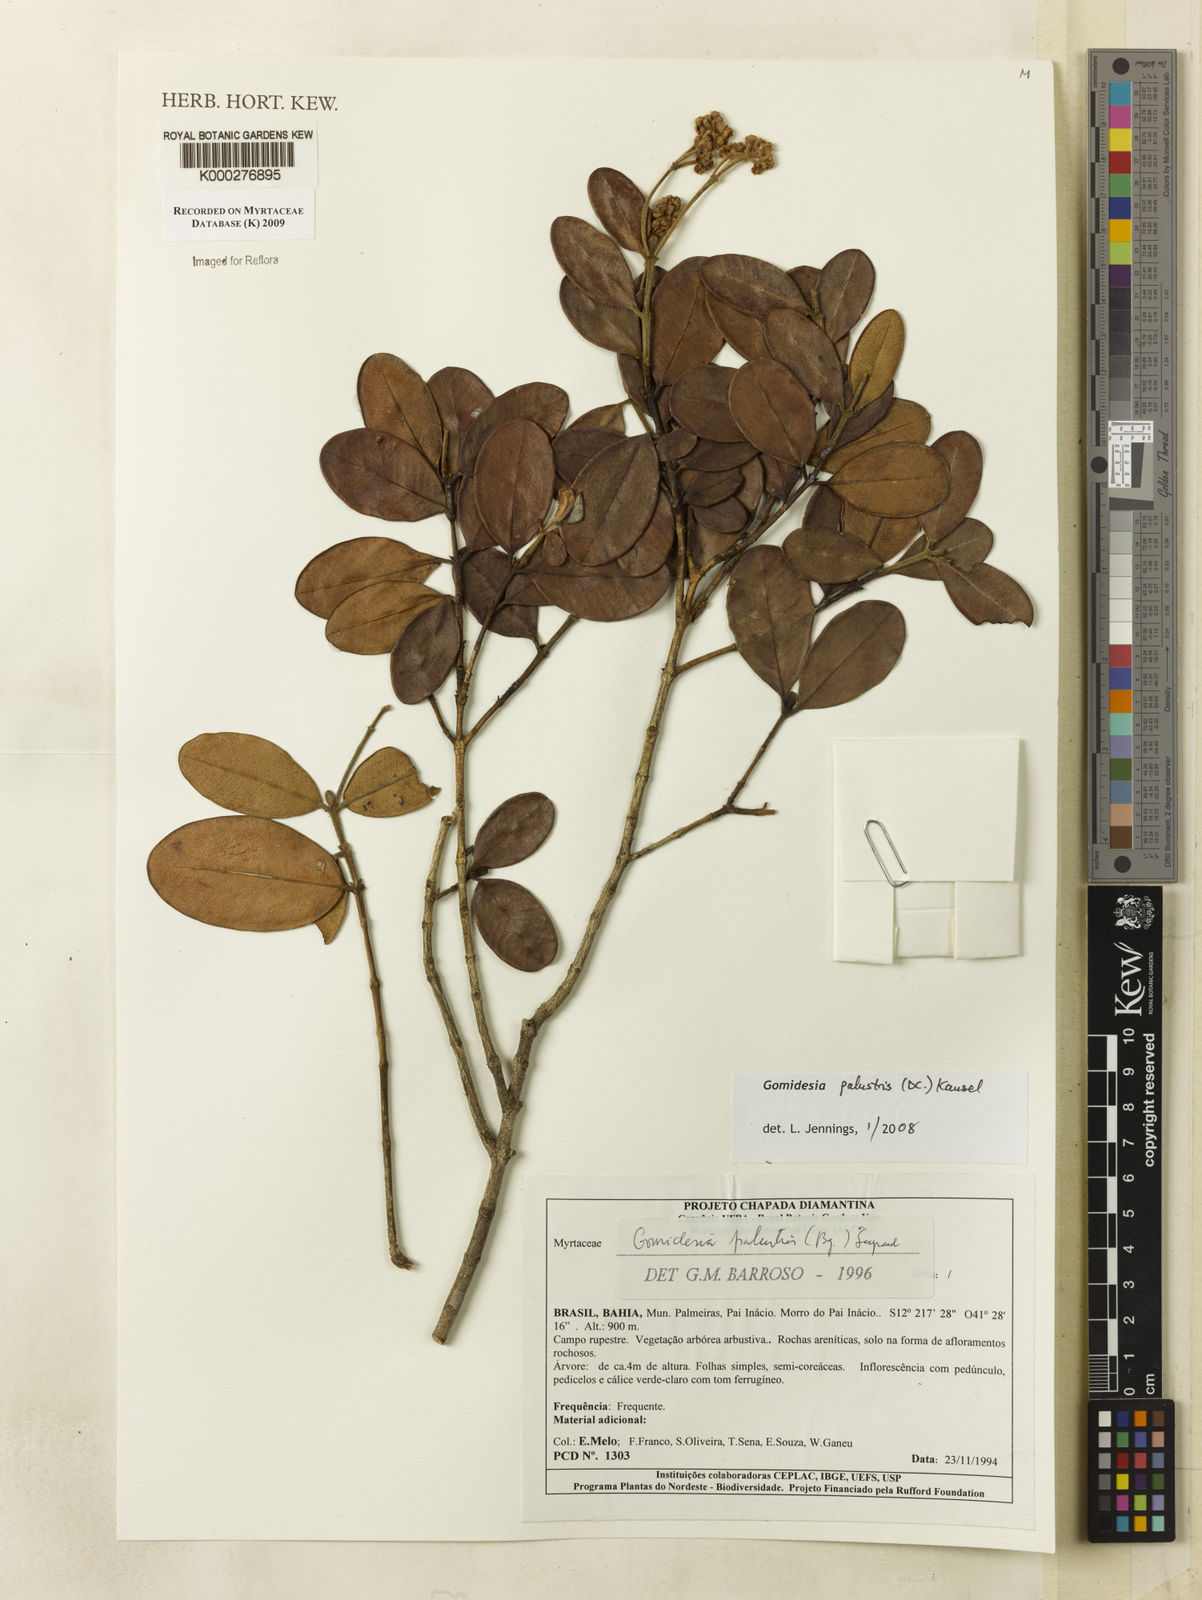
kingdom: Plantae
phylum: Tracheophyta
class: Magnoliopsida
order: Myrtales
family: Myrtaceae
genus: Myrcia
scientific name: Myrcia palustris
